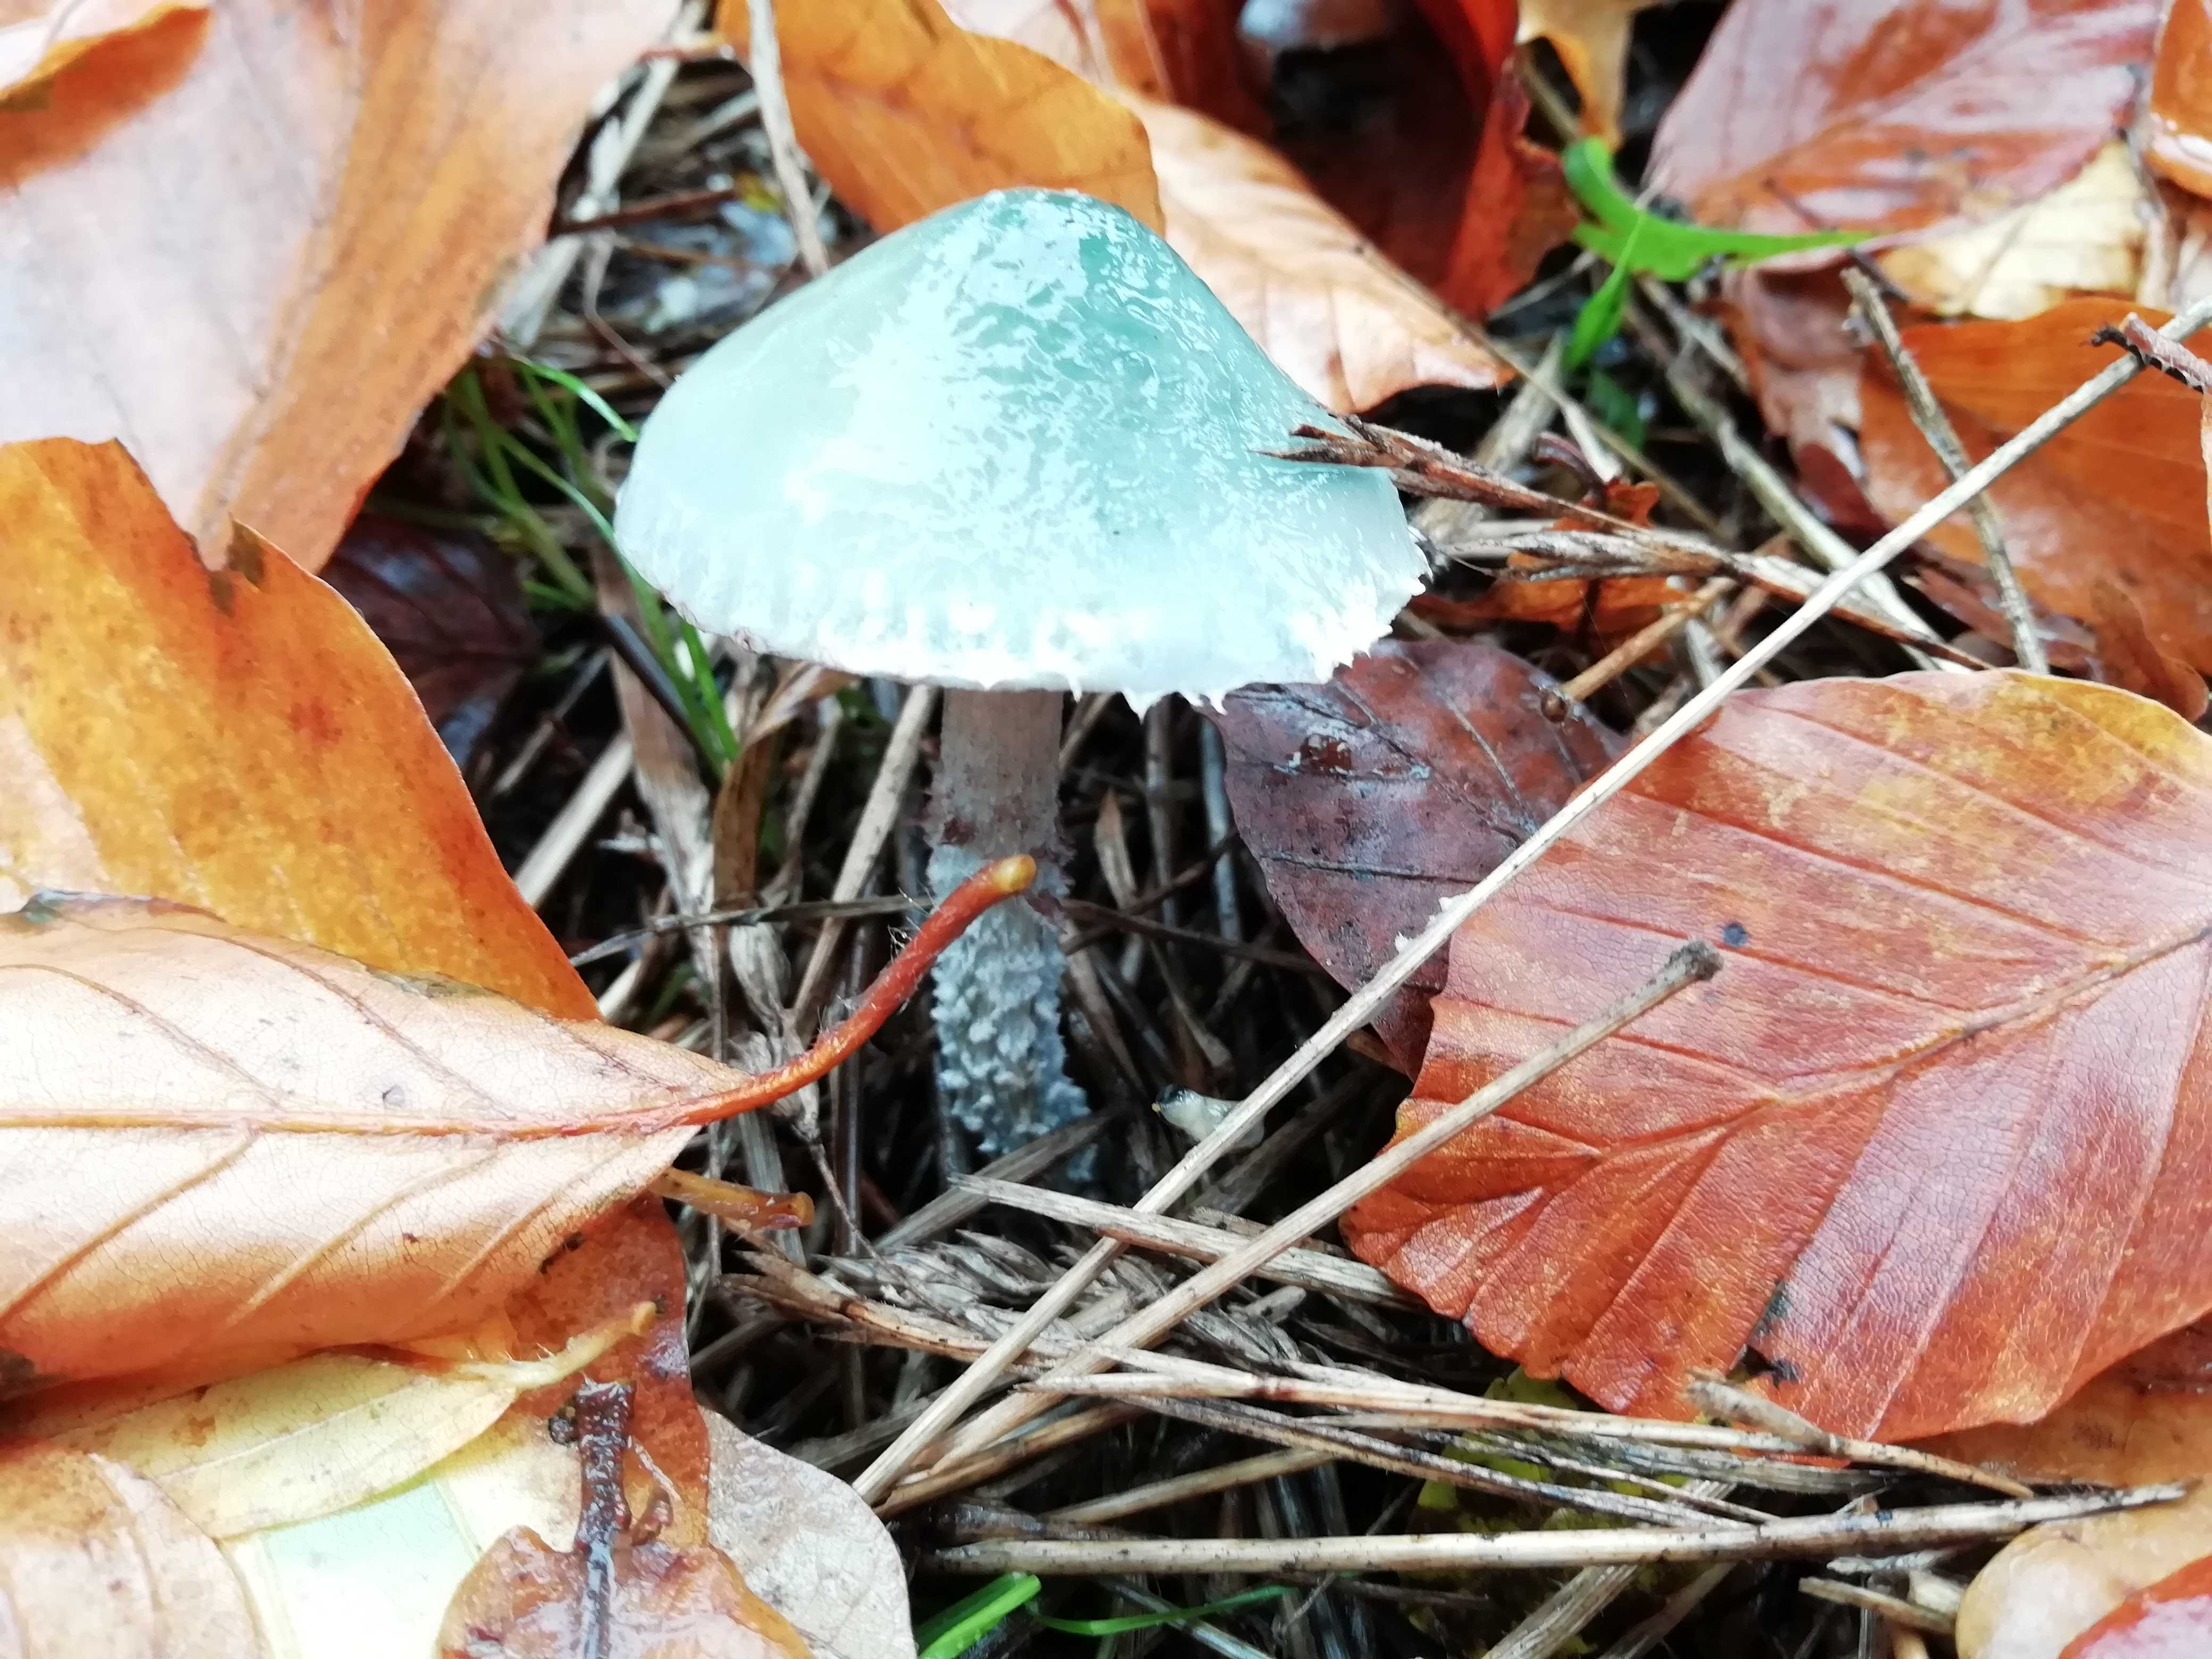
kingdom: Fungi
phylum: Basidiomycota
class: Agaricomycetes
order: Agaricales
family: Strophariaceae
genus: Stropharia
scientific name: Stropharia cyanea
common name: blågrøn bredblad
